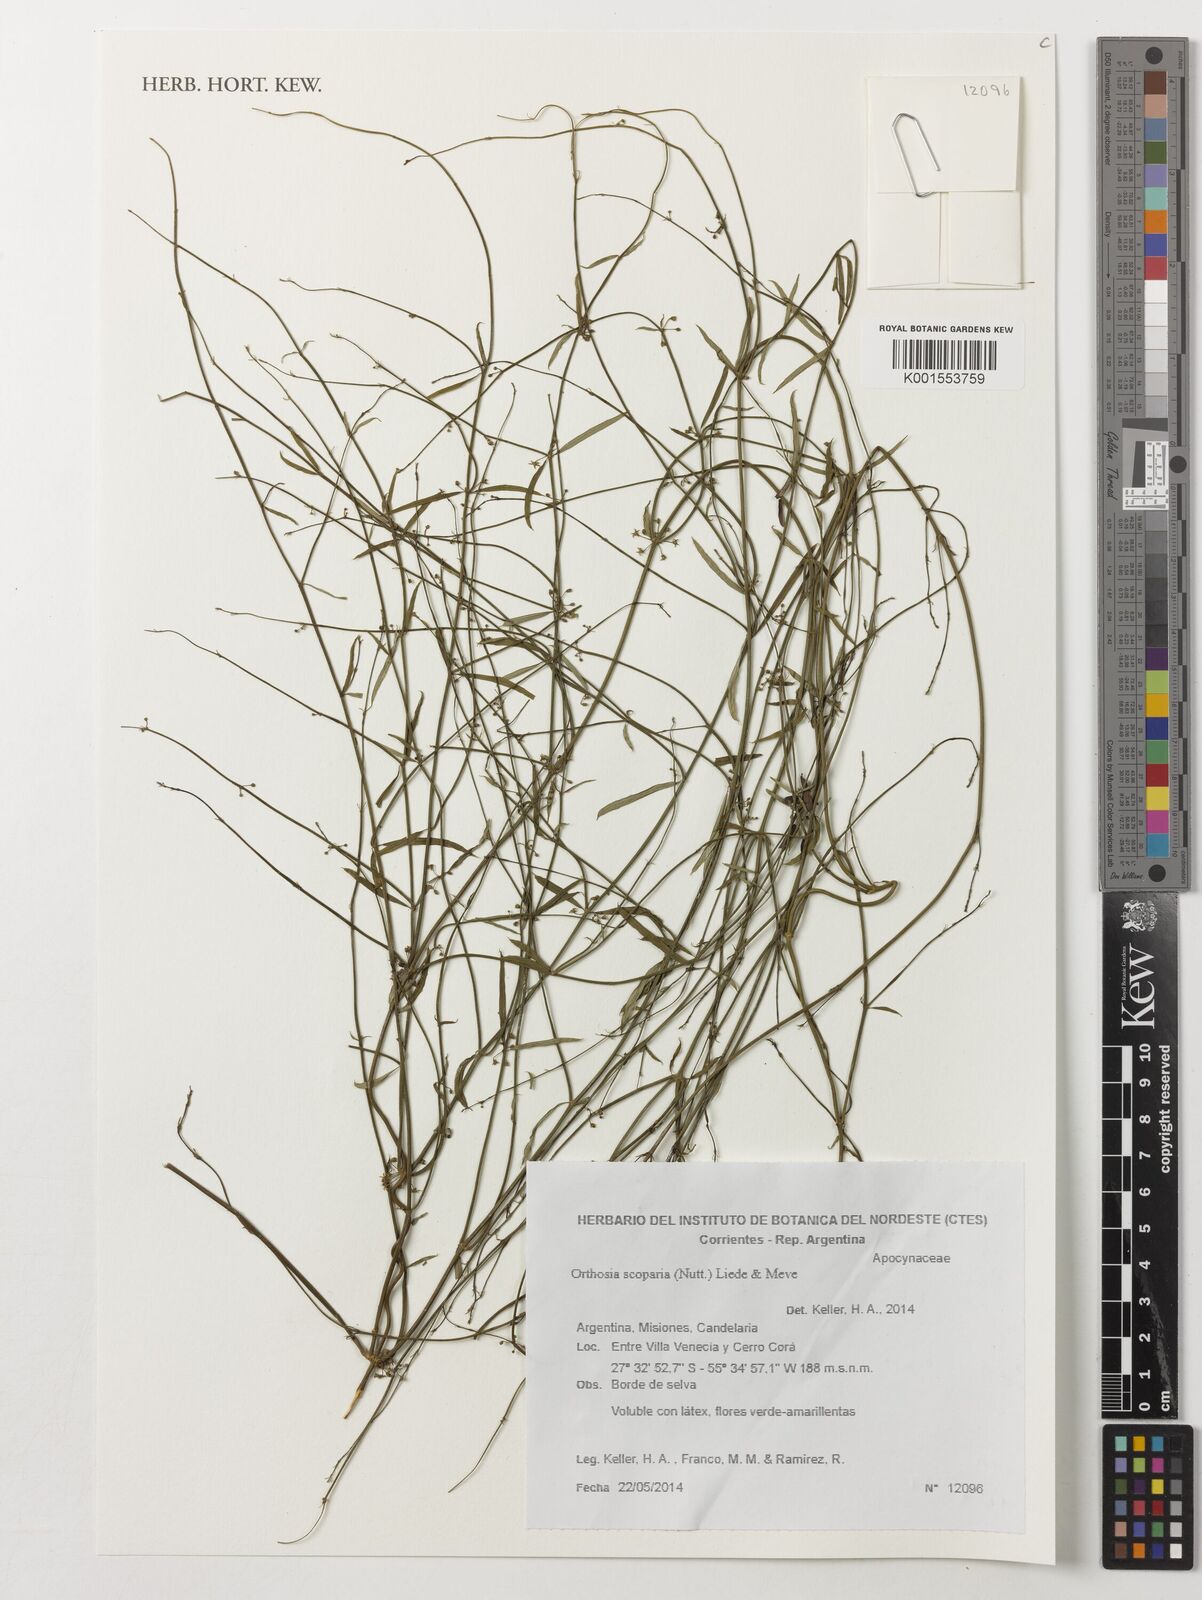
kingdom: Plantae
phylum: Tracheophyta
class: Magnoliopsida
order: Gentianales
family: Apocynaceae
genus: Orthosia
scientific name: Orthosia scoparia
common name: Leafless swallow-wort
